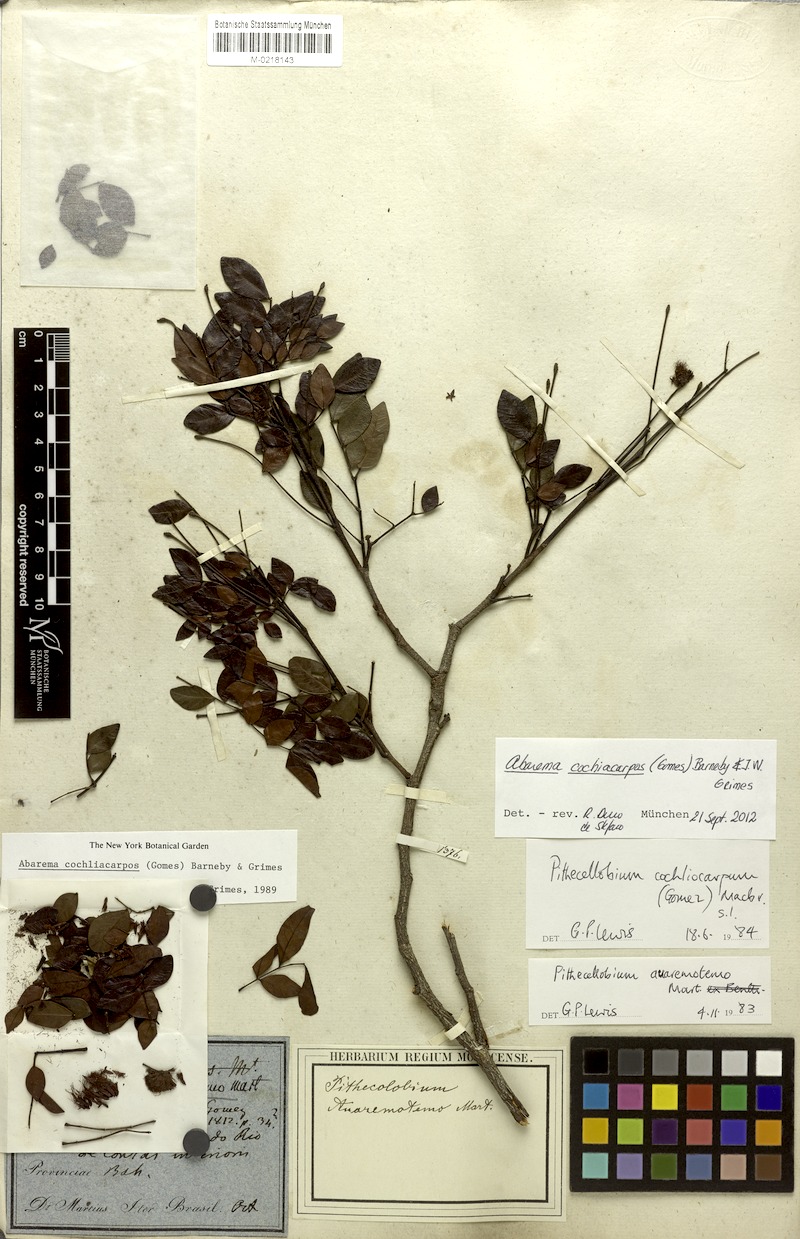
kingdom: Plantae
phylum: Tracheophyta
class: Magnoliopsida
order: Fabales
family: Fabaceae
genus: Abarema
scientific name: Abarema cochliocarpos
